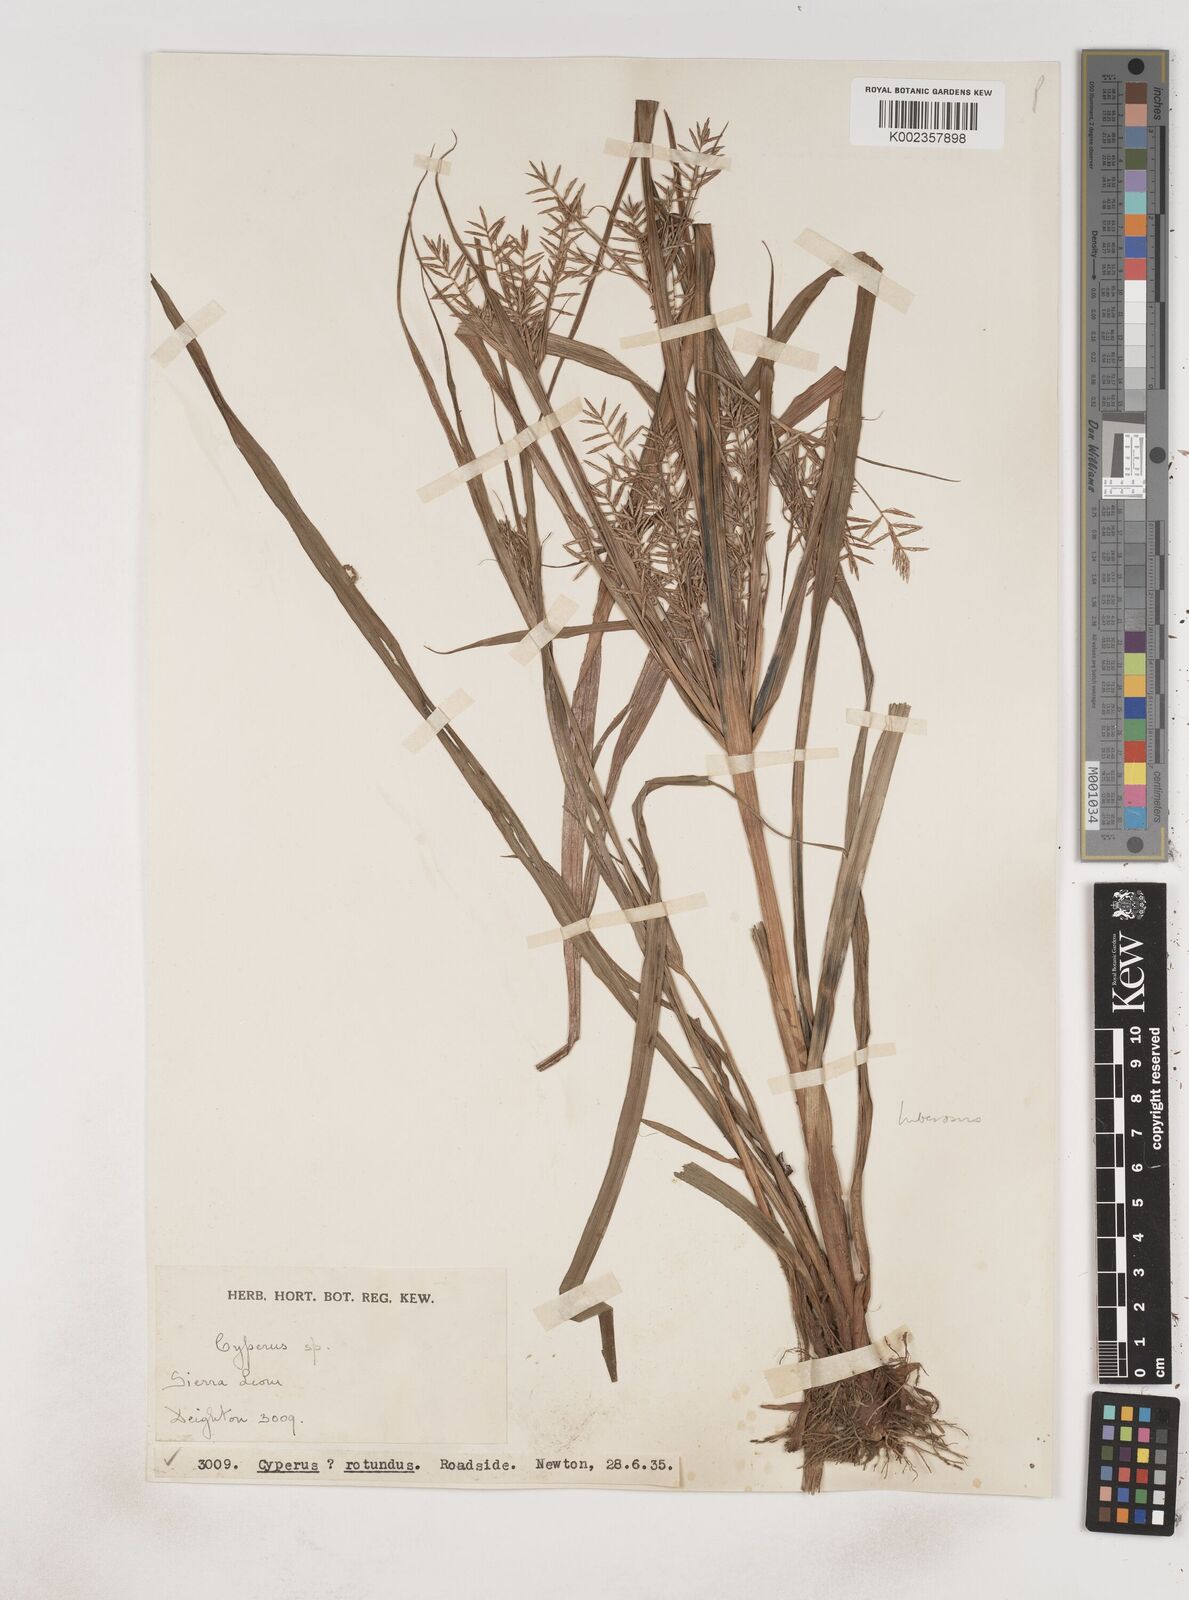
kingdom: Plantae
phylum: Tracheophyta
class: Liliopsida
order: Poales
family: Cyperaceae
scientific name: Cyperaceae
